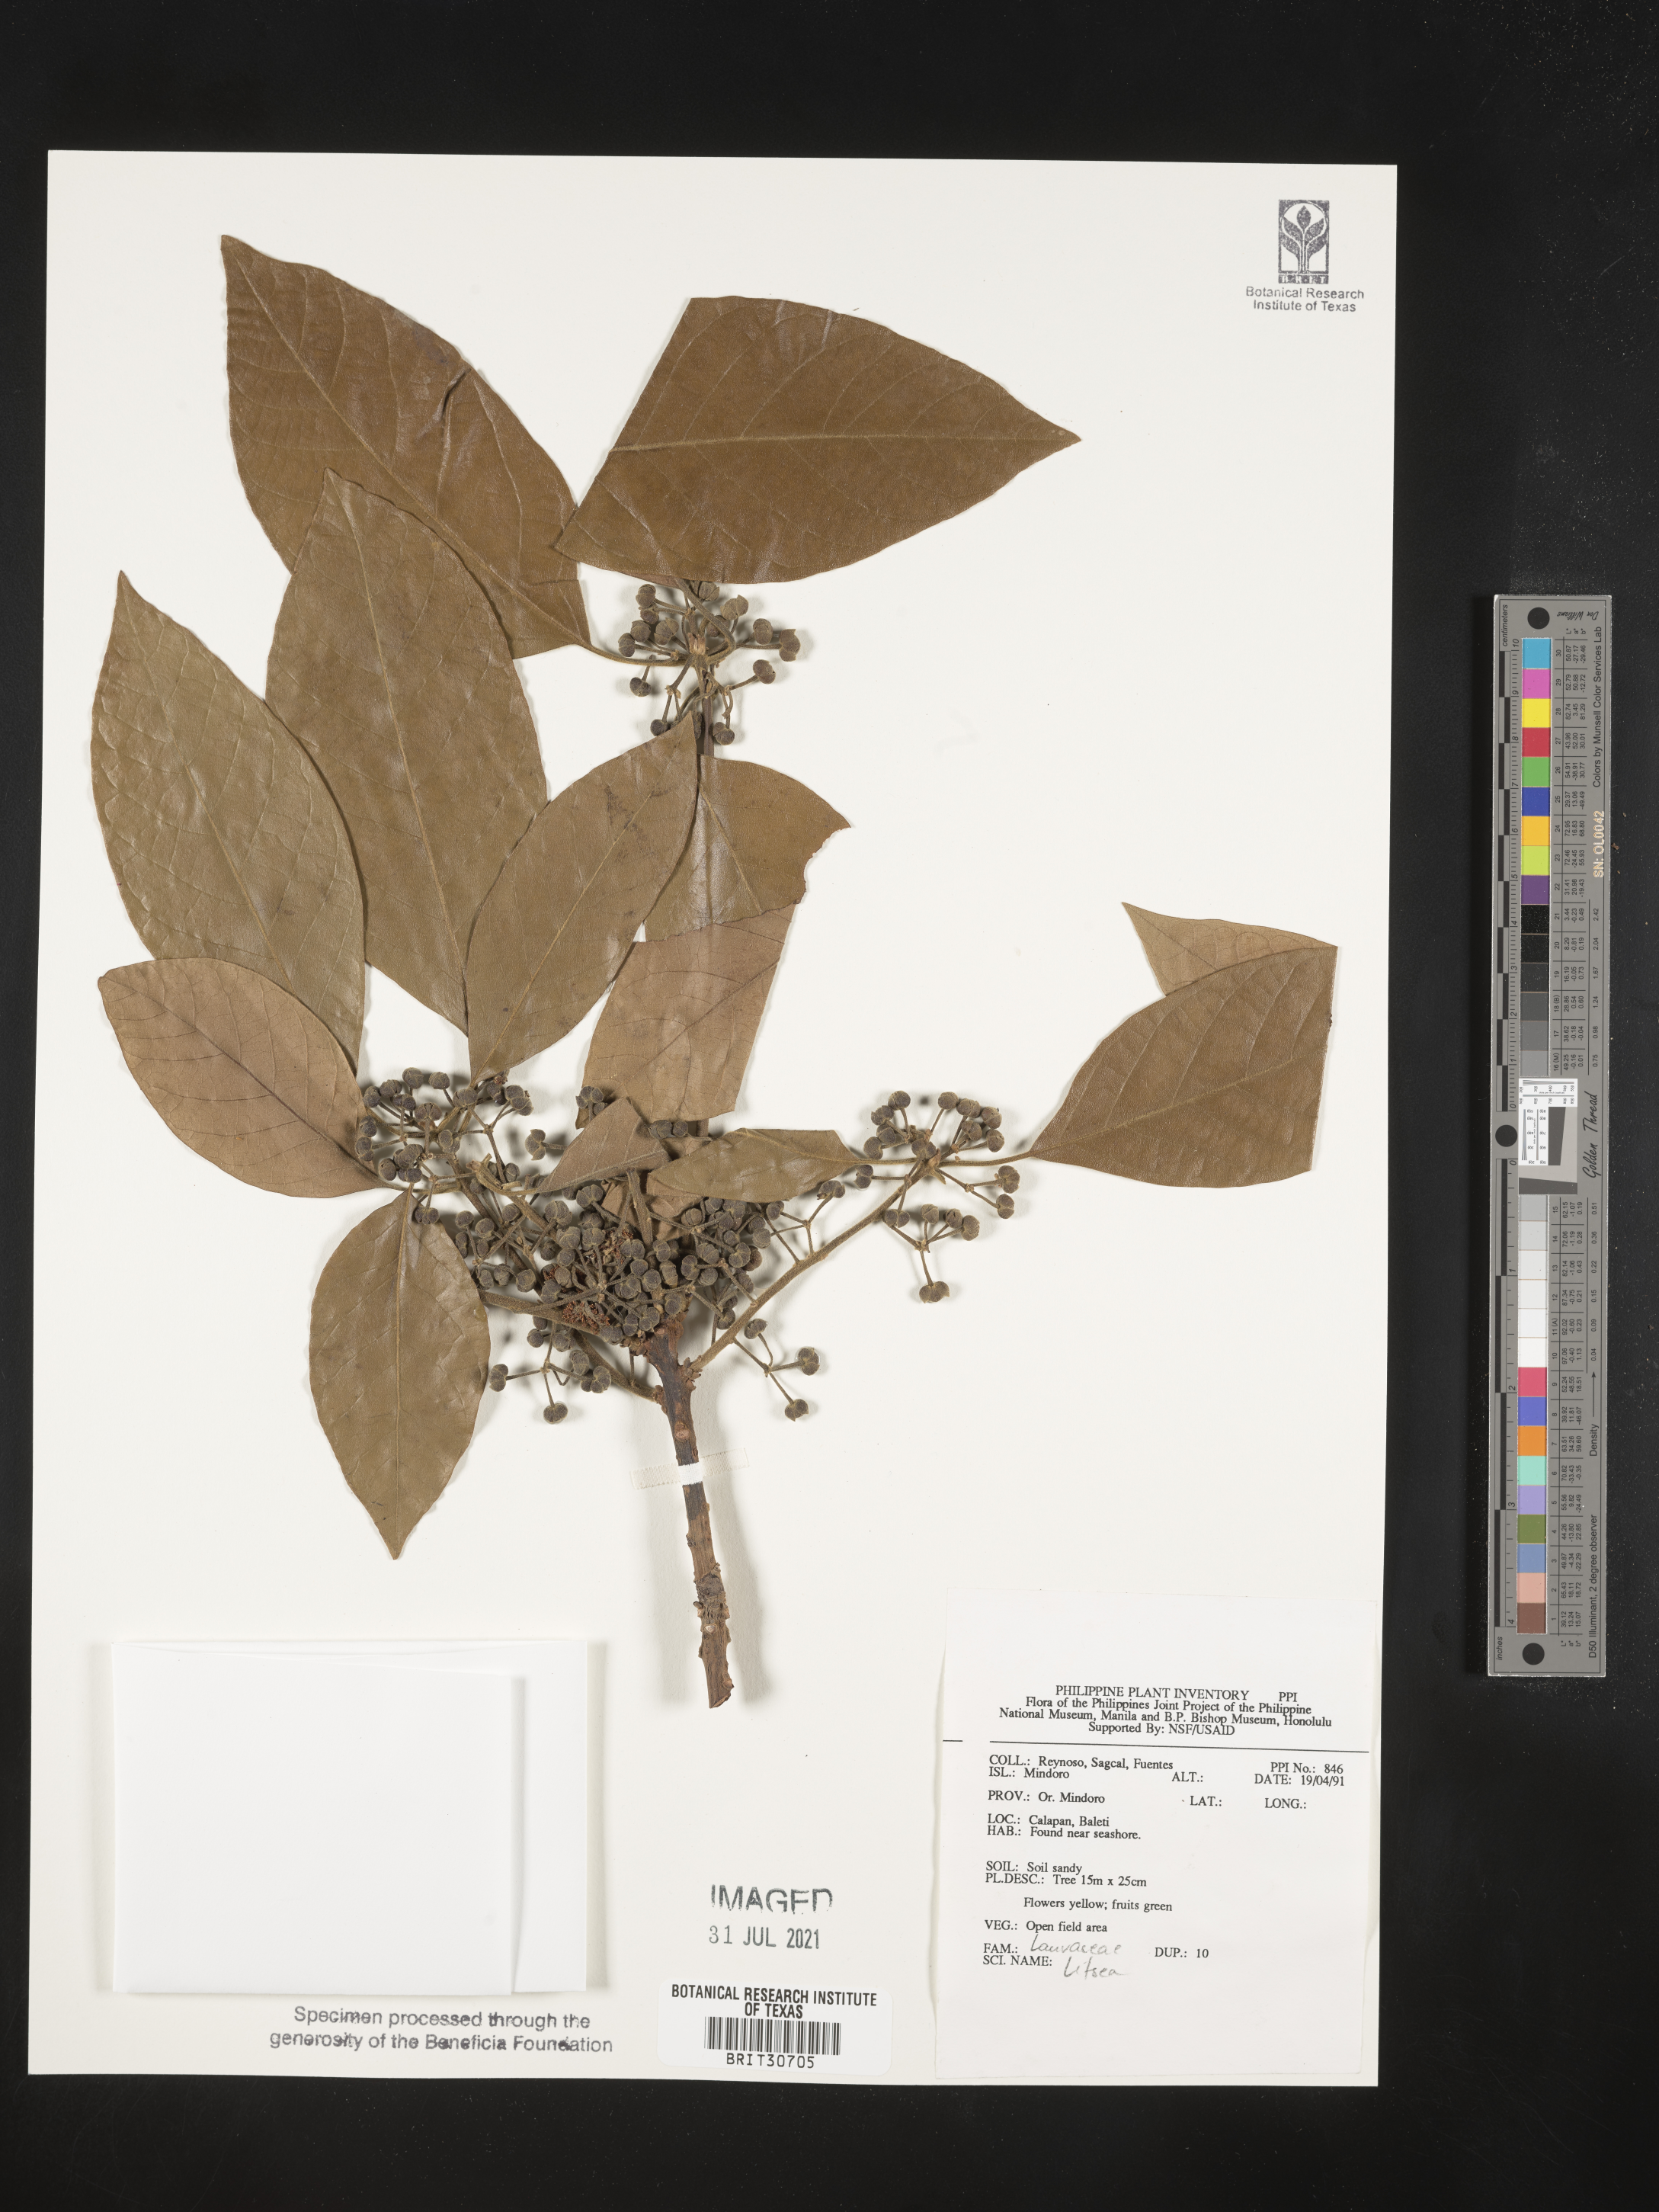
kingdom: Plantae
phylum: Tracheophyta
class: Magnoliopsida
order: Laurales
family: Lauraceae
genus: Litsea
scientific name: Litsea
